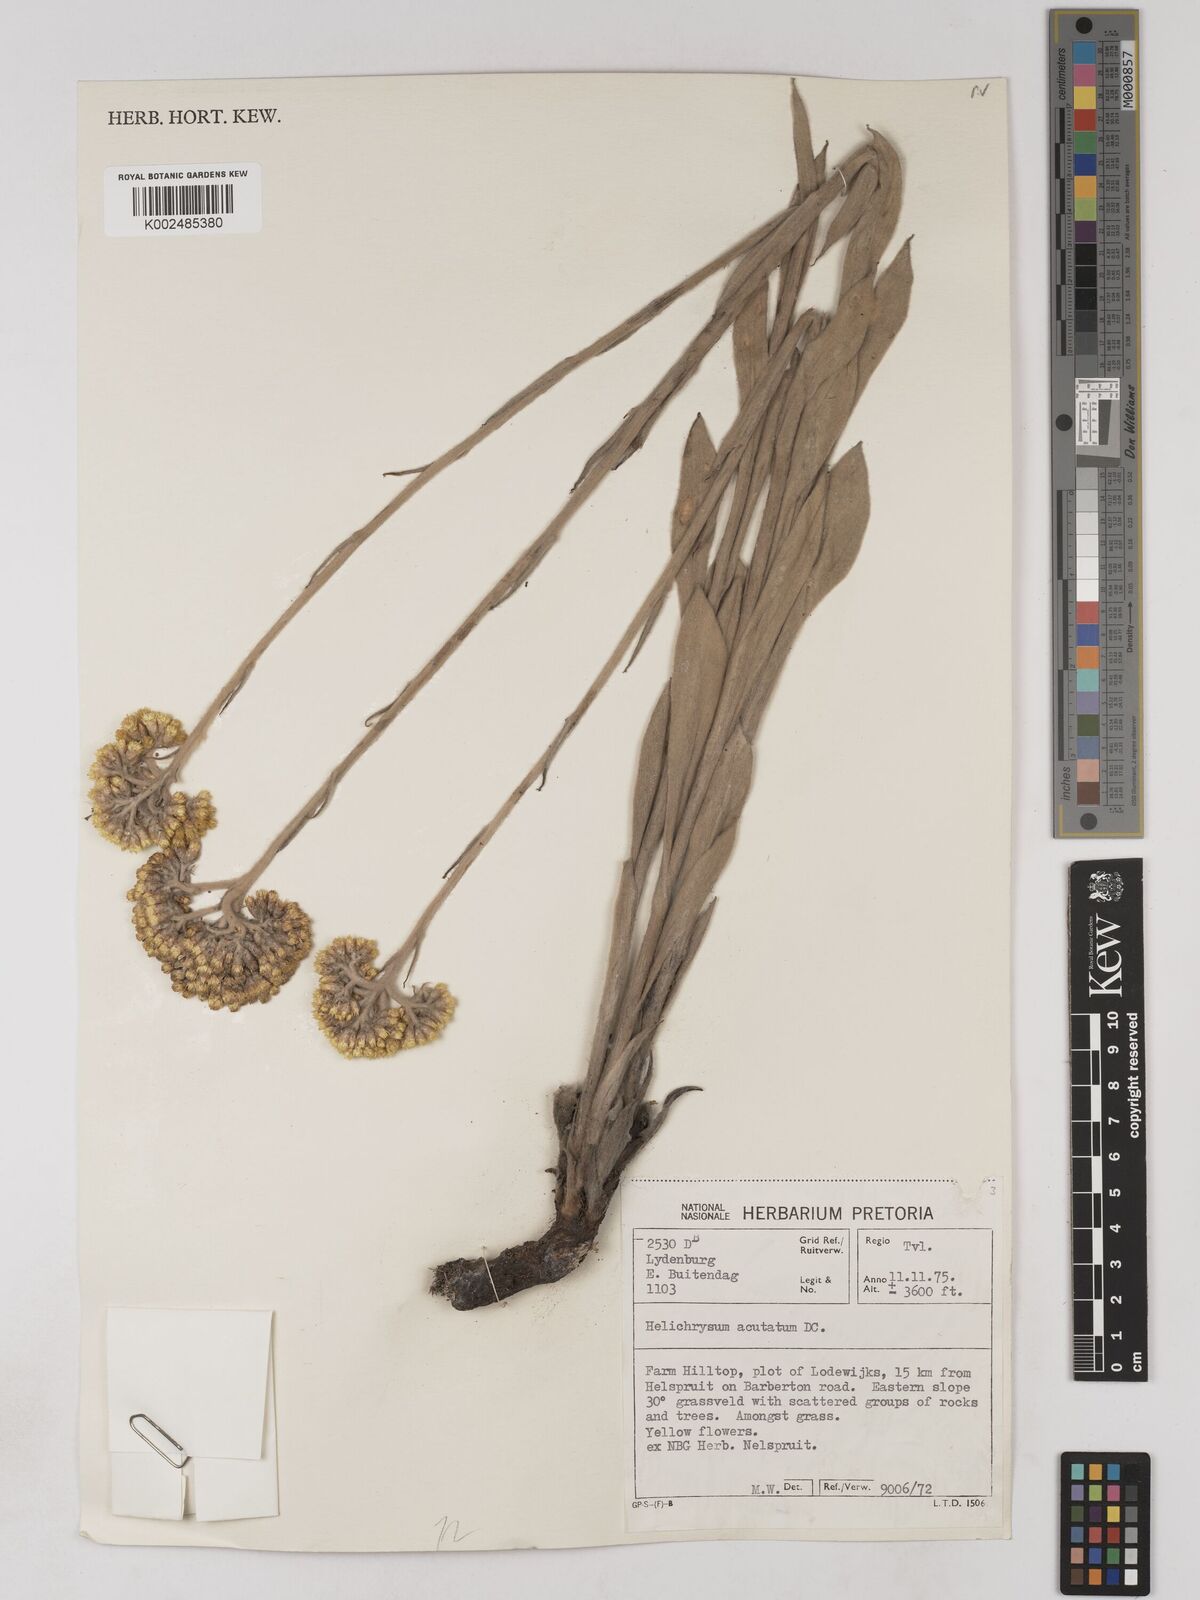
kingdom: Plantae
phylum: Tracheophyta
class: Magnoliopsida
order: Asterales
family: Asteraceae
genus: Helichrysum
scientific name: Helichrysum acutatum
